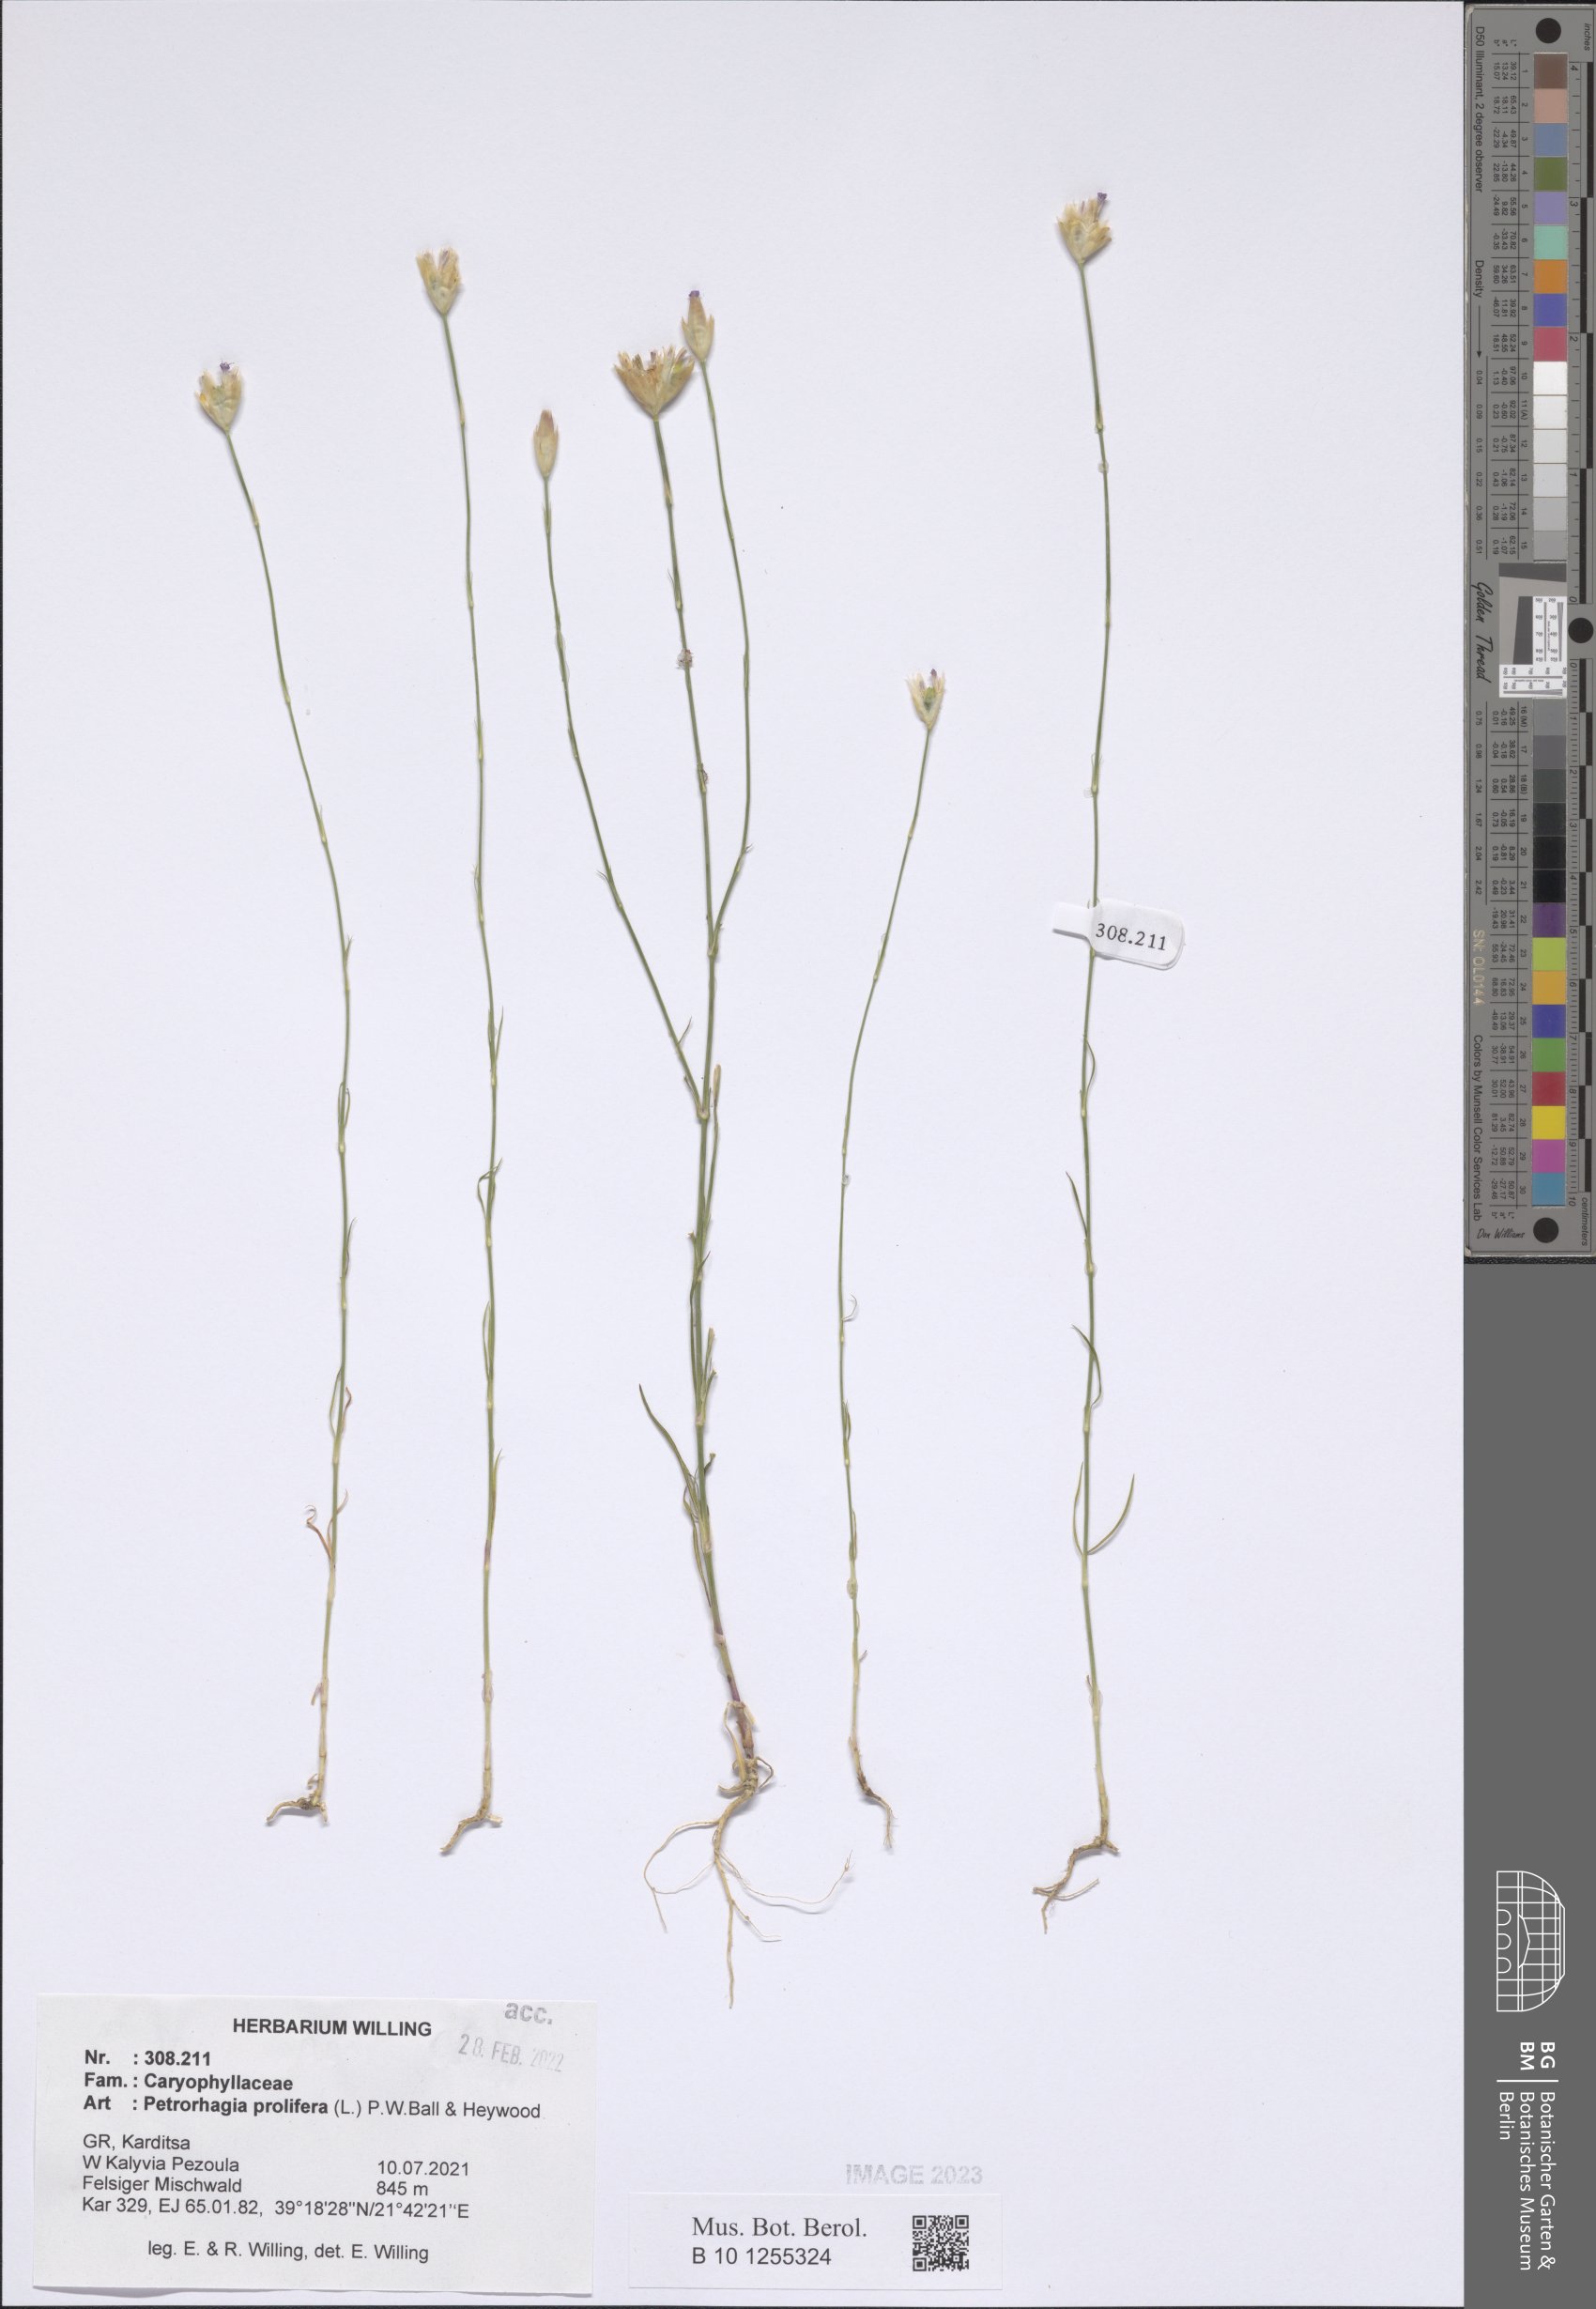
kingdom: Plantae
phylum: Tracheophyta
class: Magnoliopsida
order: Caryophyllales
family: Caryophyllaceae
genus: Petrorhagia
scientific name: Petrorhagia prolifera
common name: Proliferous pink
